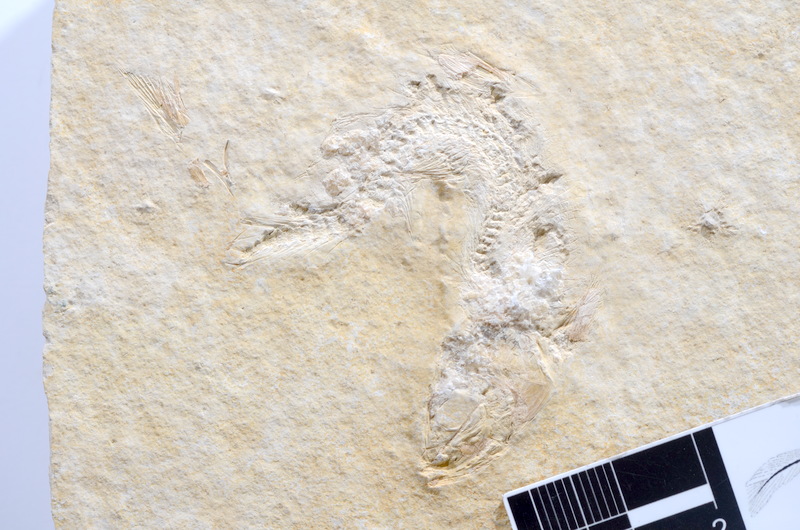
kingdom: Animalia
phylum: Chordata
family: Ascalaboidae
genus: Tharsis
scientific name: Tharsis dubius
